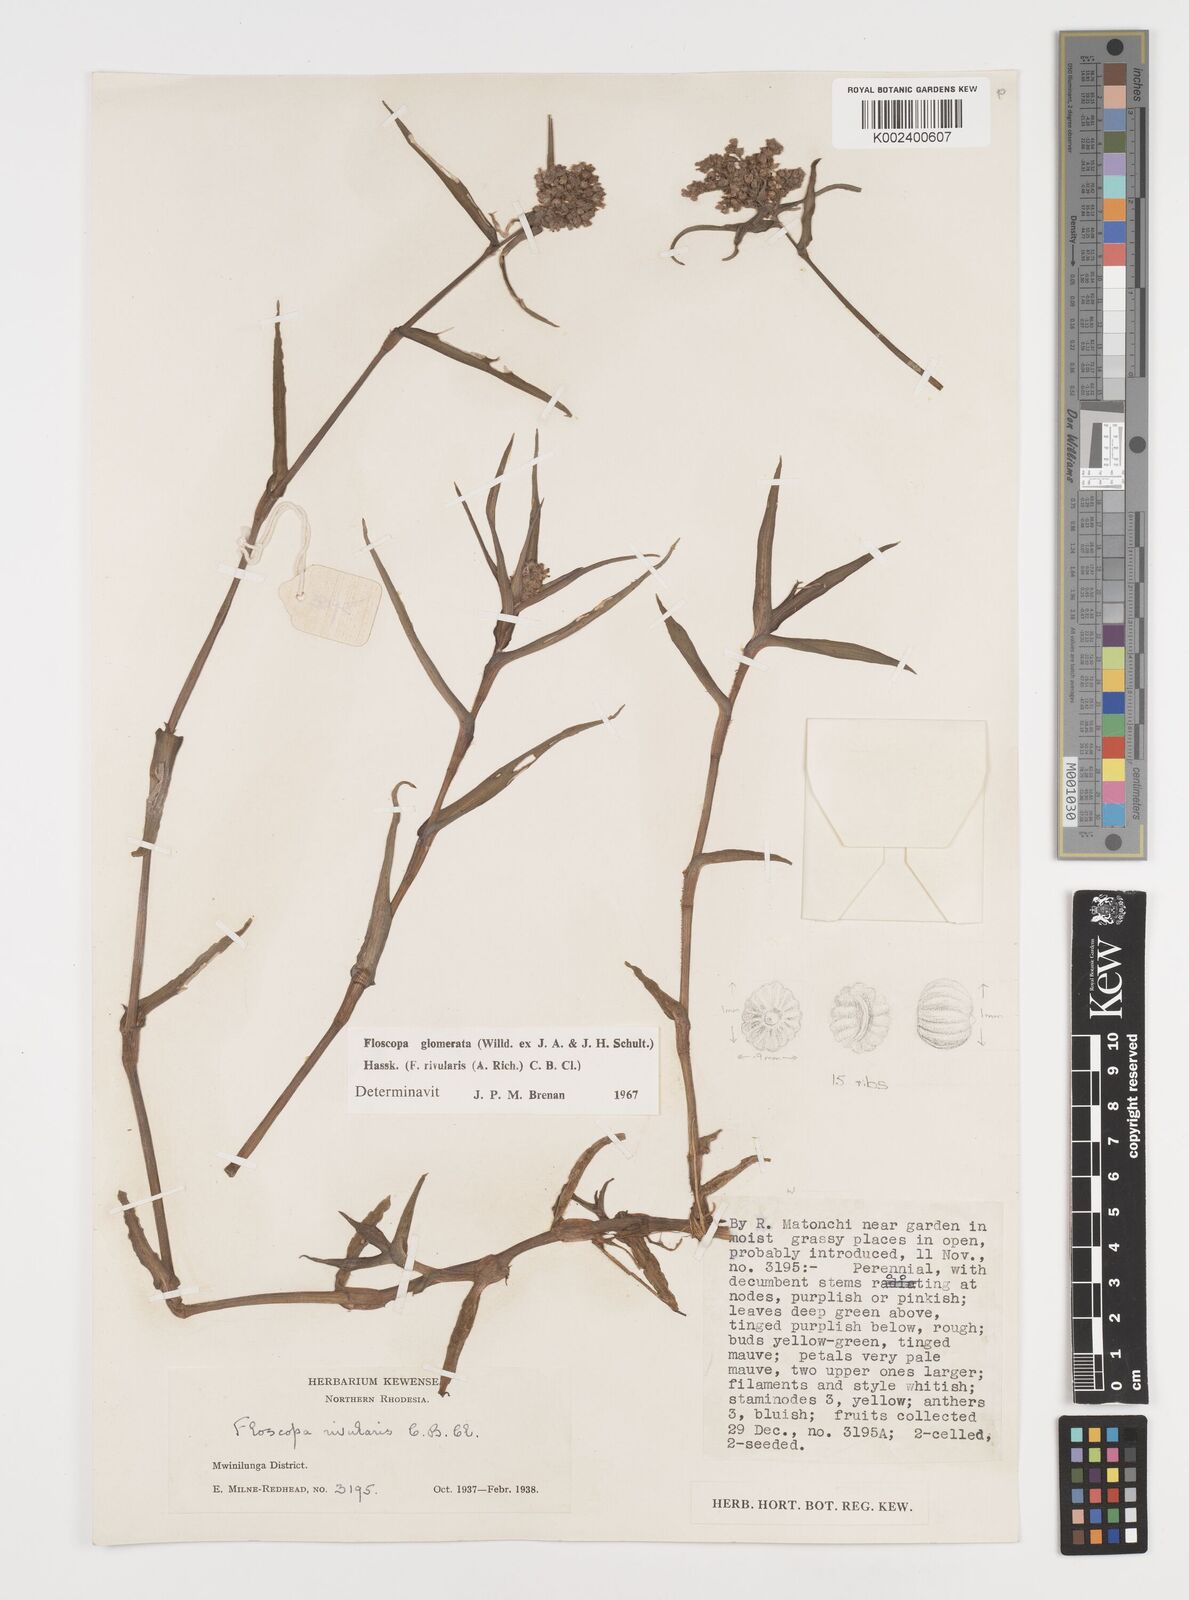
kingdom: Plantae
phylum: Tracheophyta
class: Liliopsida
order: Commelinales
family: Commelinaceae
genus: Floscopa
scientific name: Floscopa glomerata
